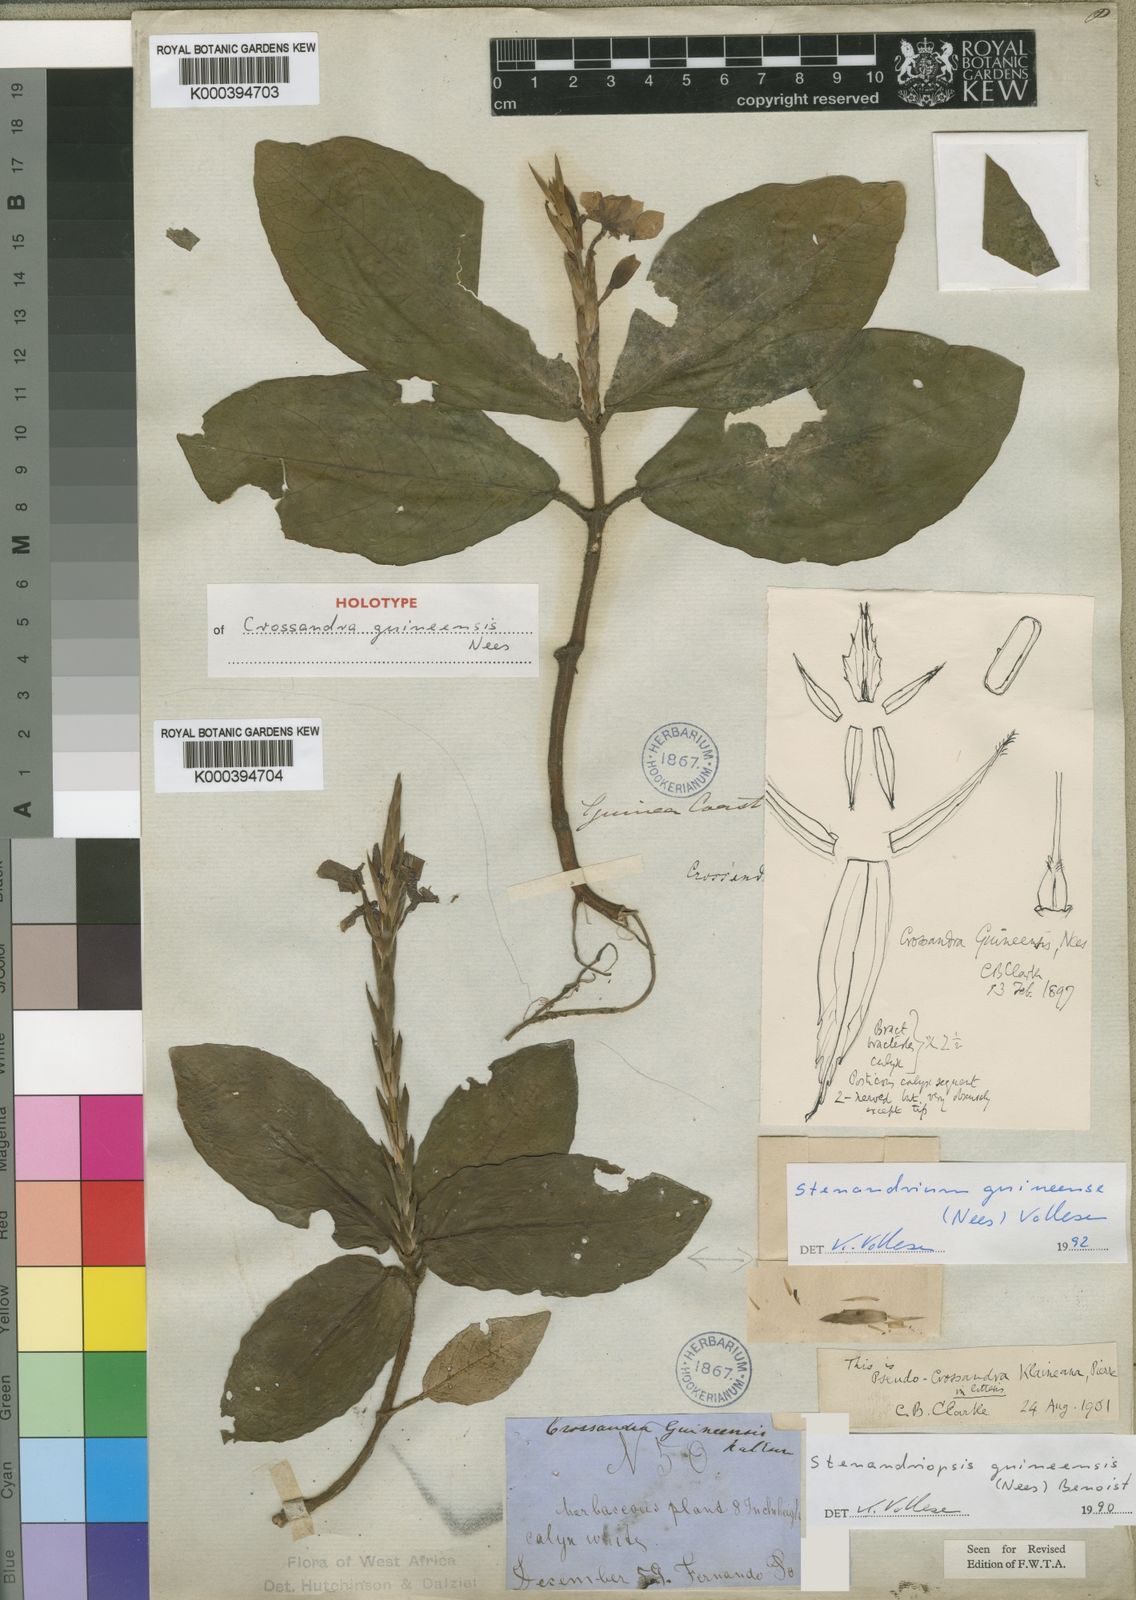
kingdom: Plantae
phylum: Tracheophyta
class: Magnoliopsida
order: Lamiales
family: Acanthaceae
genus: Stenandriopsis
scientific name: Stenandriopsis guineensis
